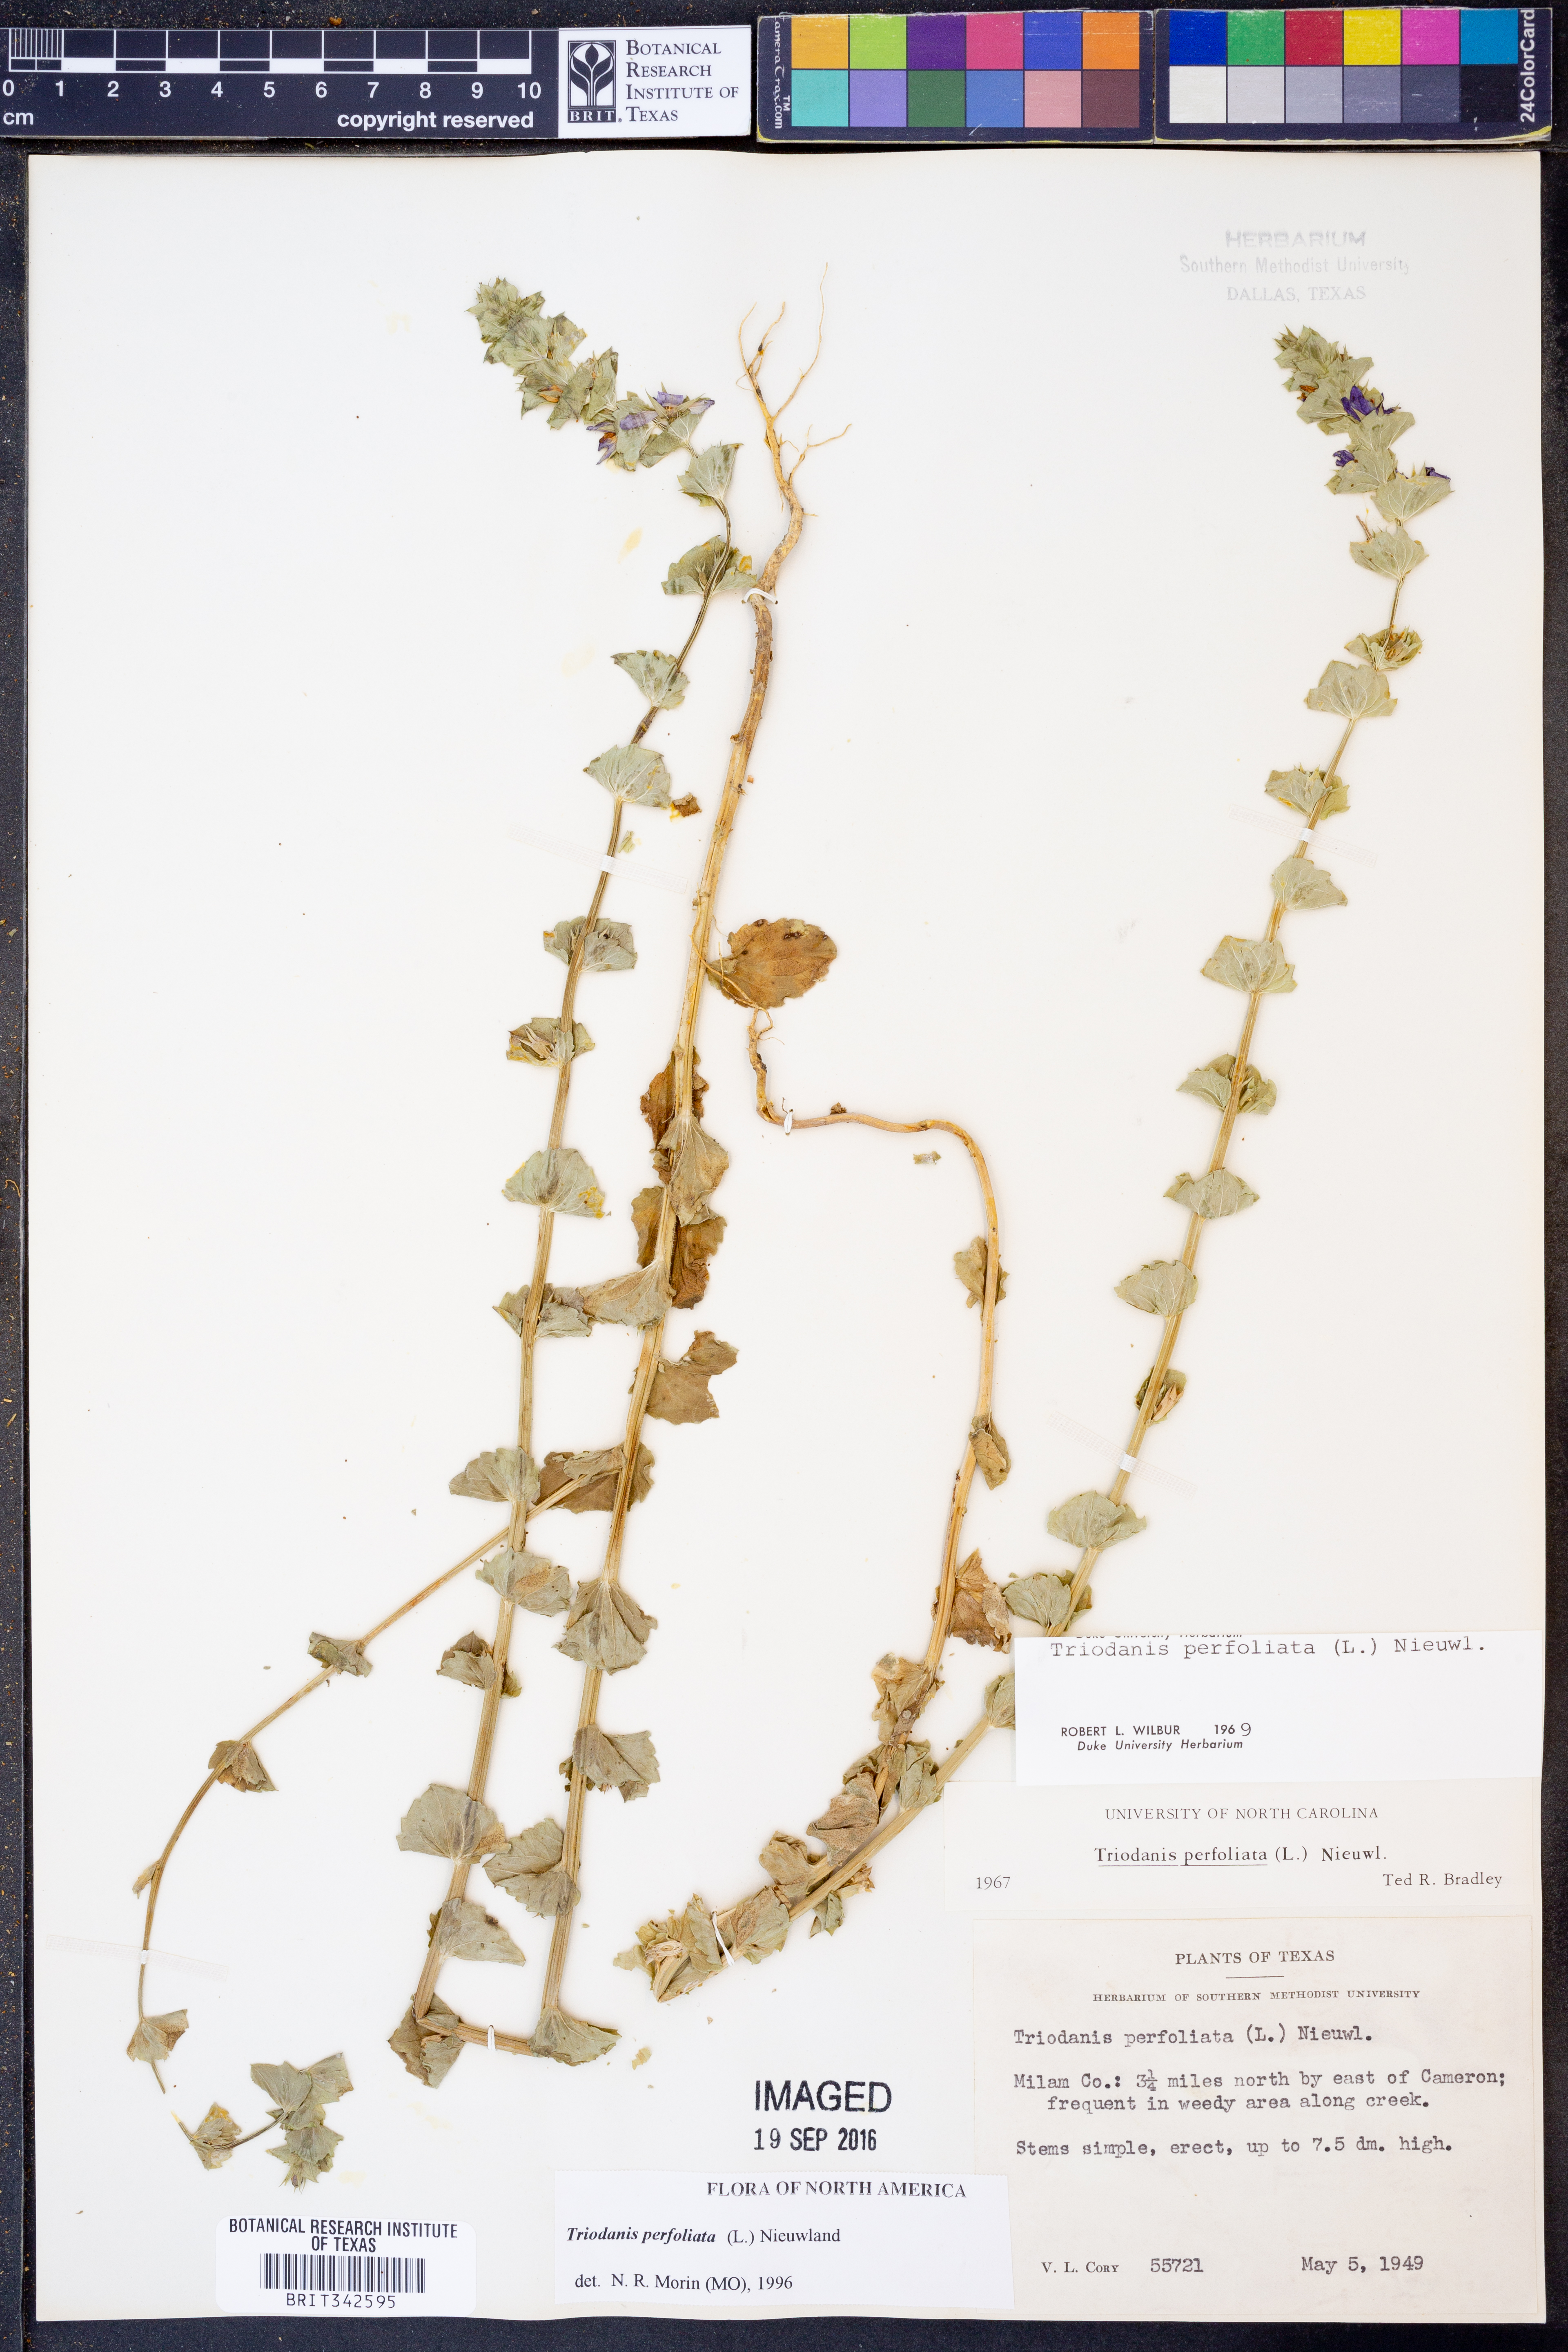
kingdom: Plantae
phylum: Tracheophyta
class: Magnoliopsida
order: Asterales
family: Campanulaceae
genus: Triodanis
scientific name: Triodanis perfoliata
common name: Clasping venus' looking-glass
